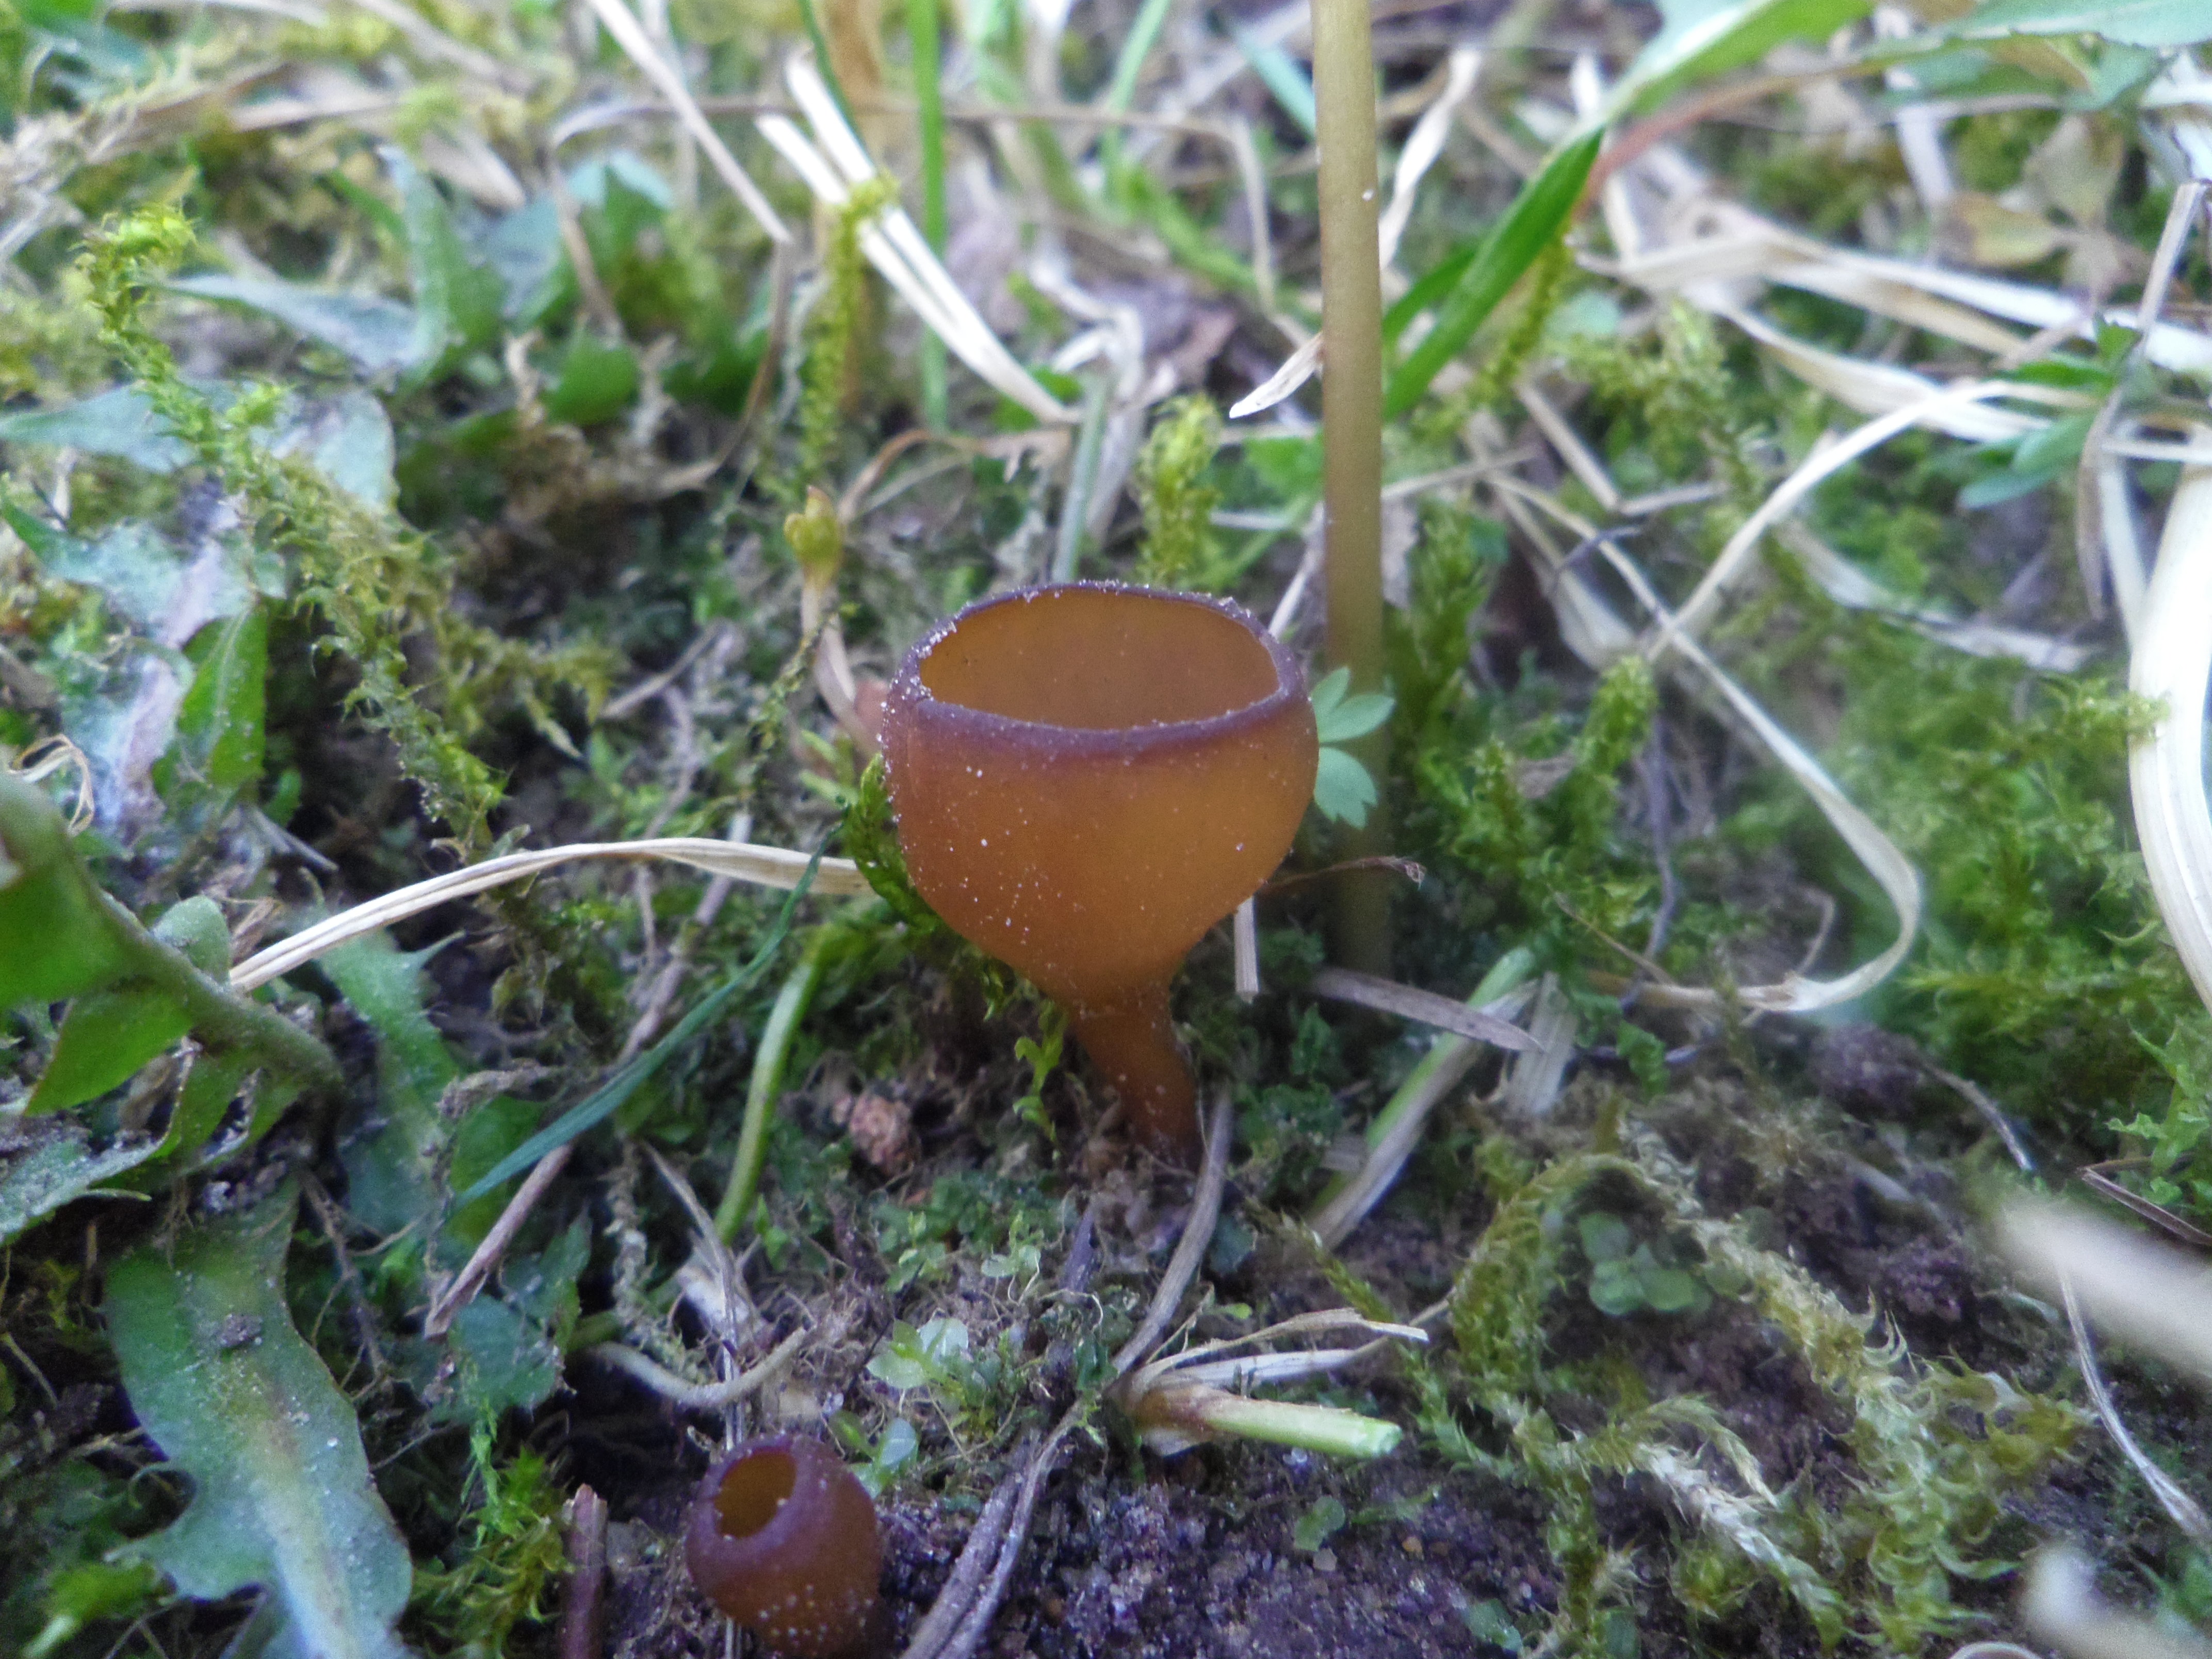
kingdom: Fungi
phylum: Ascomycota
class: Leotiomycetes
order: Helotiales
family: Sclerotiniaceae
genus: Dumontinia
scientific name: Dumontinia tuberosa
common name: Anemone cup
